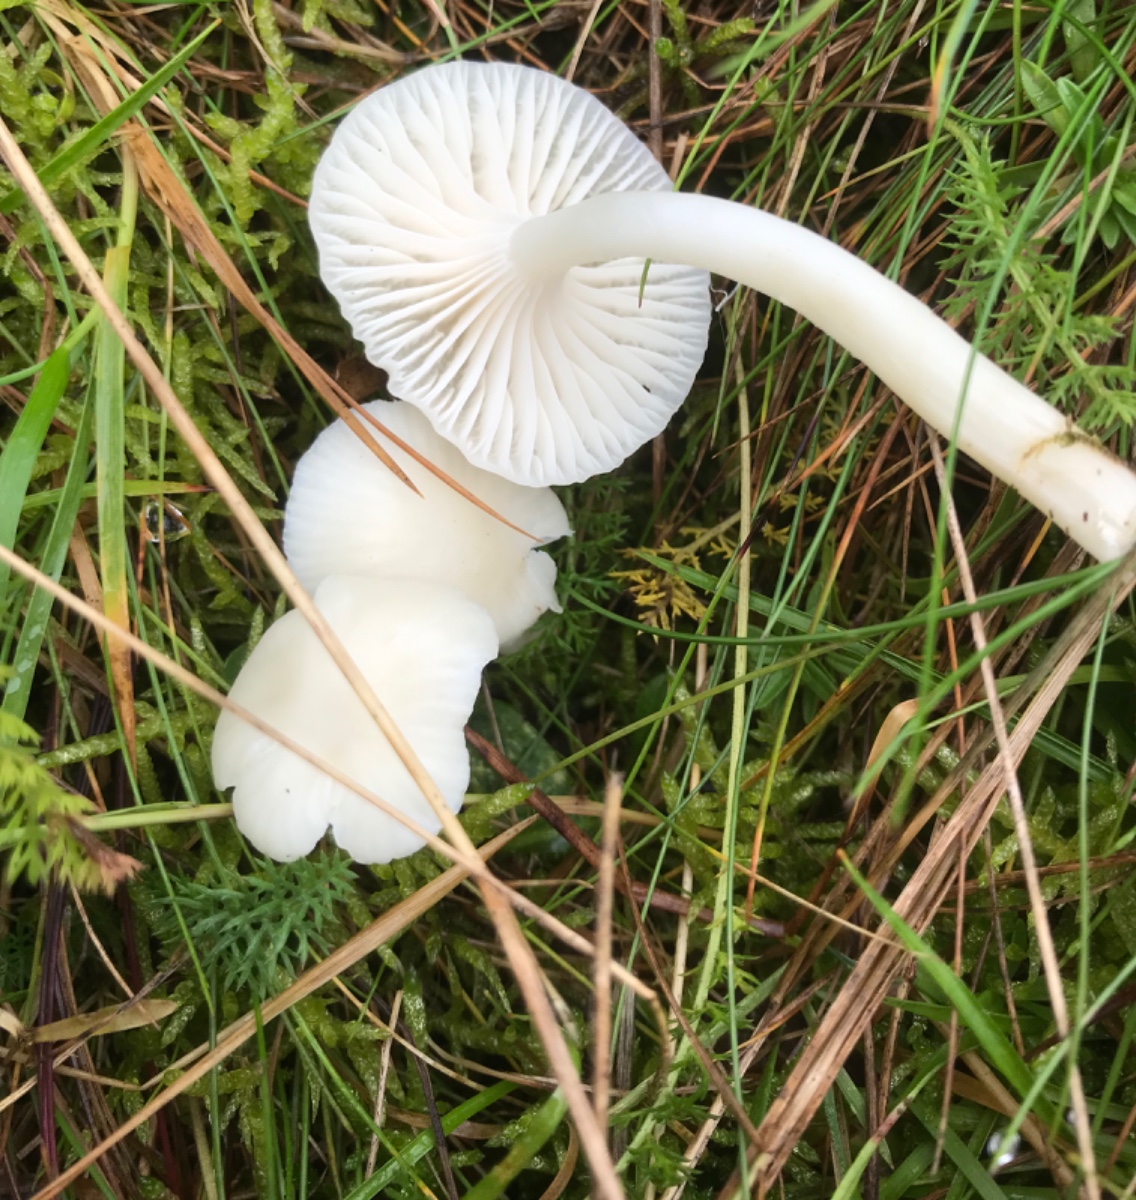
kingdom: Fungi
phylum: Basidiomycota
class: Agaricomycetes
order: Agaricales
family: Hygrophoraceae
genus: Cuphophyllus
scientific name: Cuphophyllus virgineus
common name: snehvid vokshat
